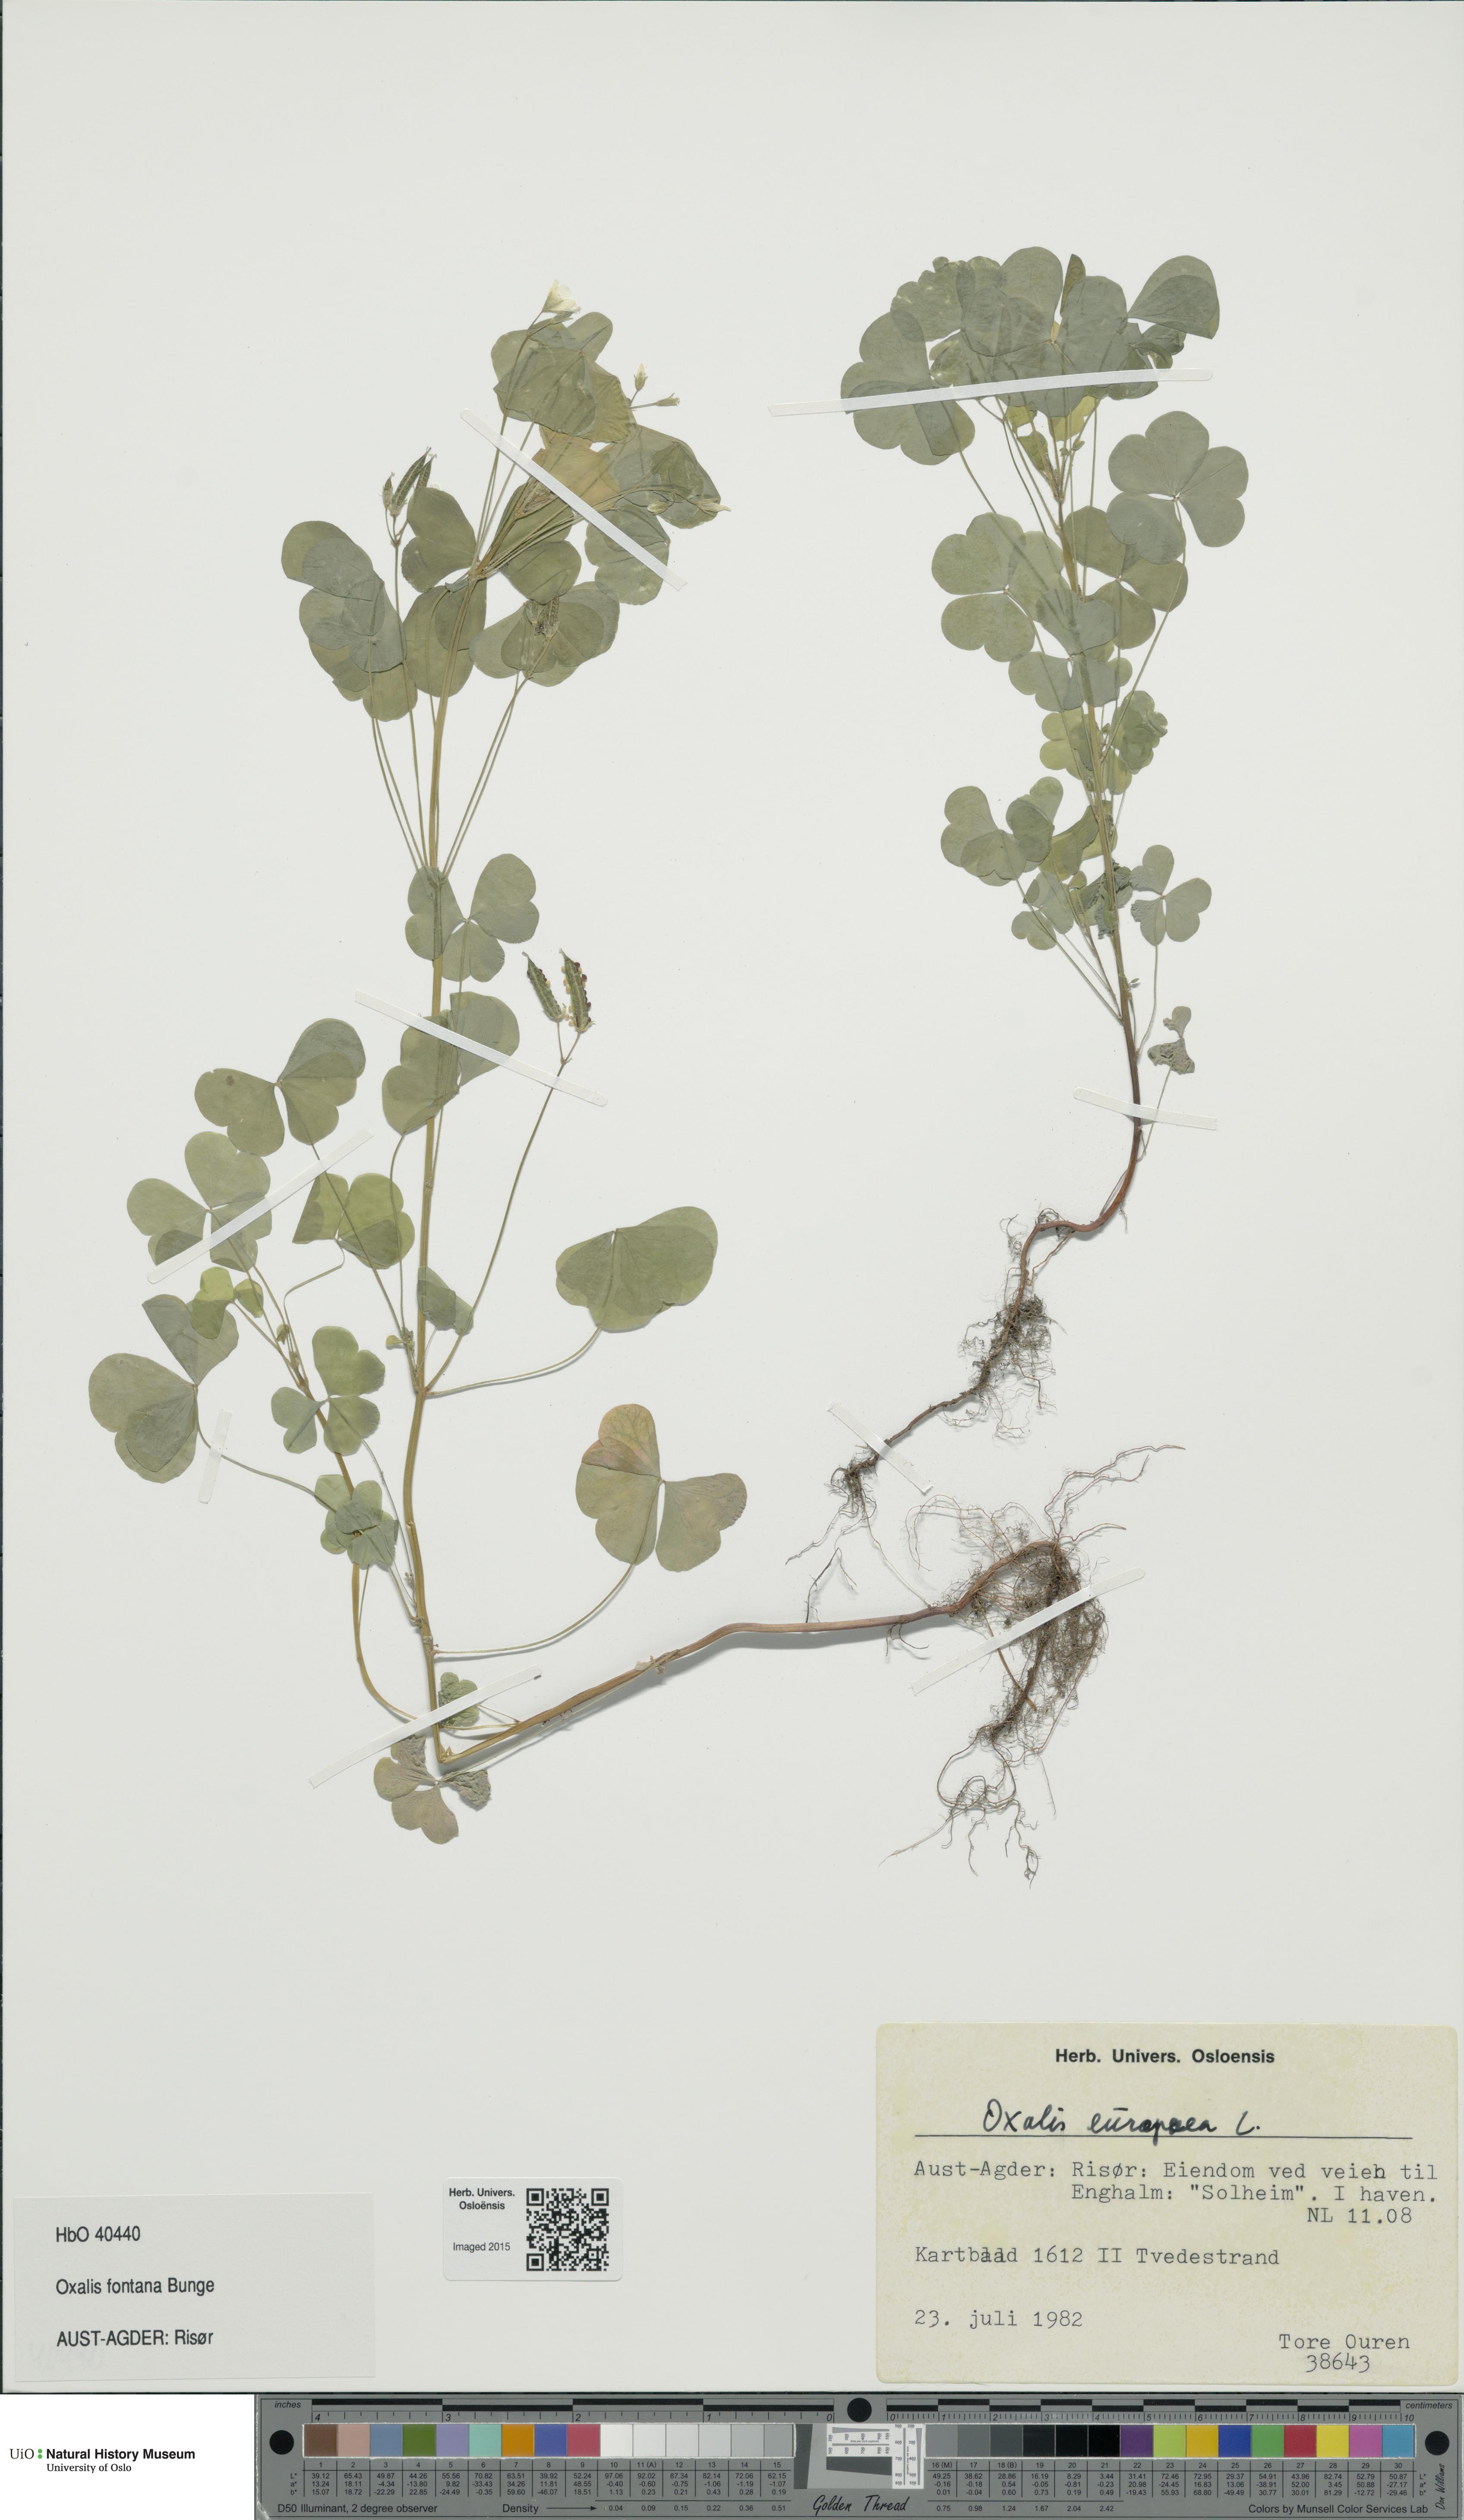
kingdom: Plantae
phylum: Tracheophyta
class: Magnoliopsida
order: Oxalidales
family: Oxalidaceae
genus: Oxalis
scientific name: Oxalis stricta
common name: Upright yellow-sorrel
